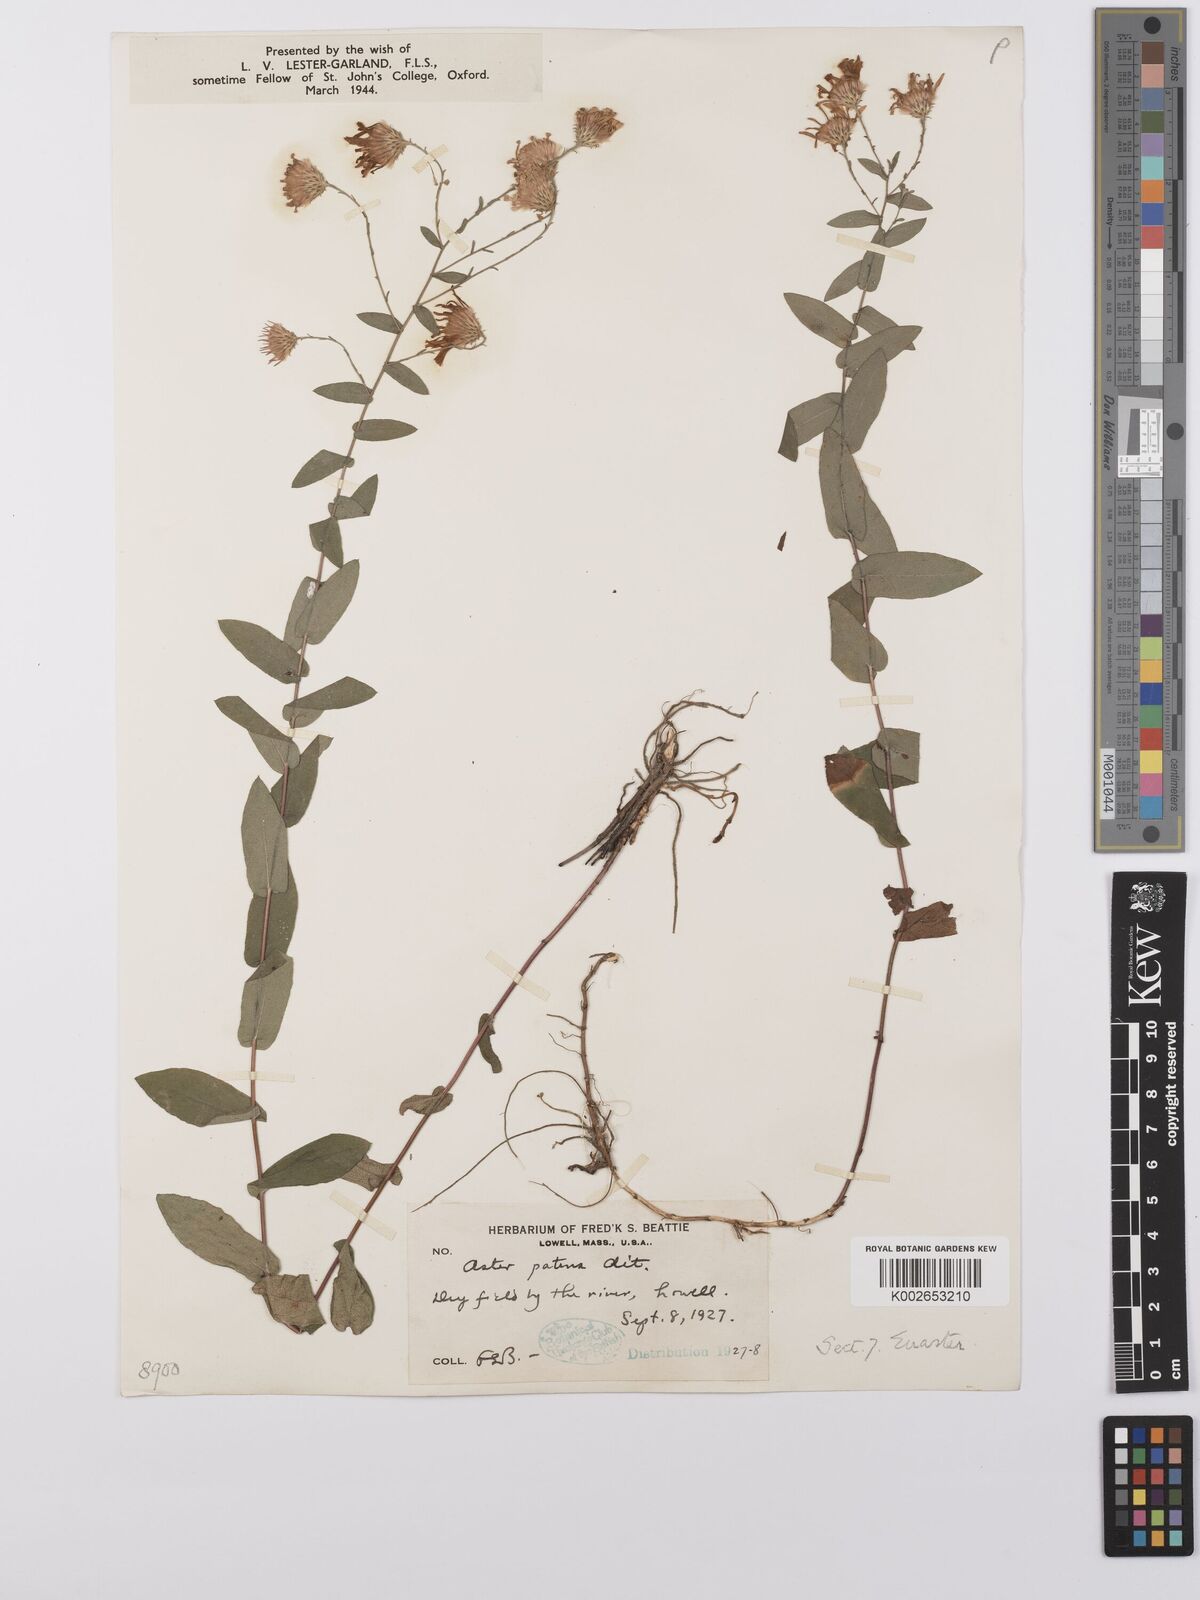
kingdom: Plantae
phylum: Tracheophyta
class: Magnoliopsida
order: Asterales
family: Asteraceae
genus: Symphyotrichum
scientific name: Symphyotrichum patens
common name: Late purple aster
